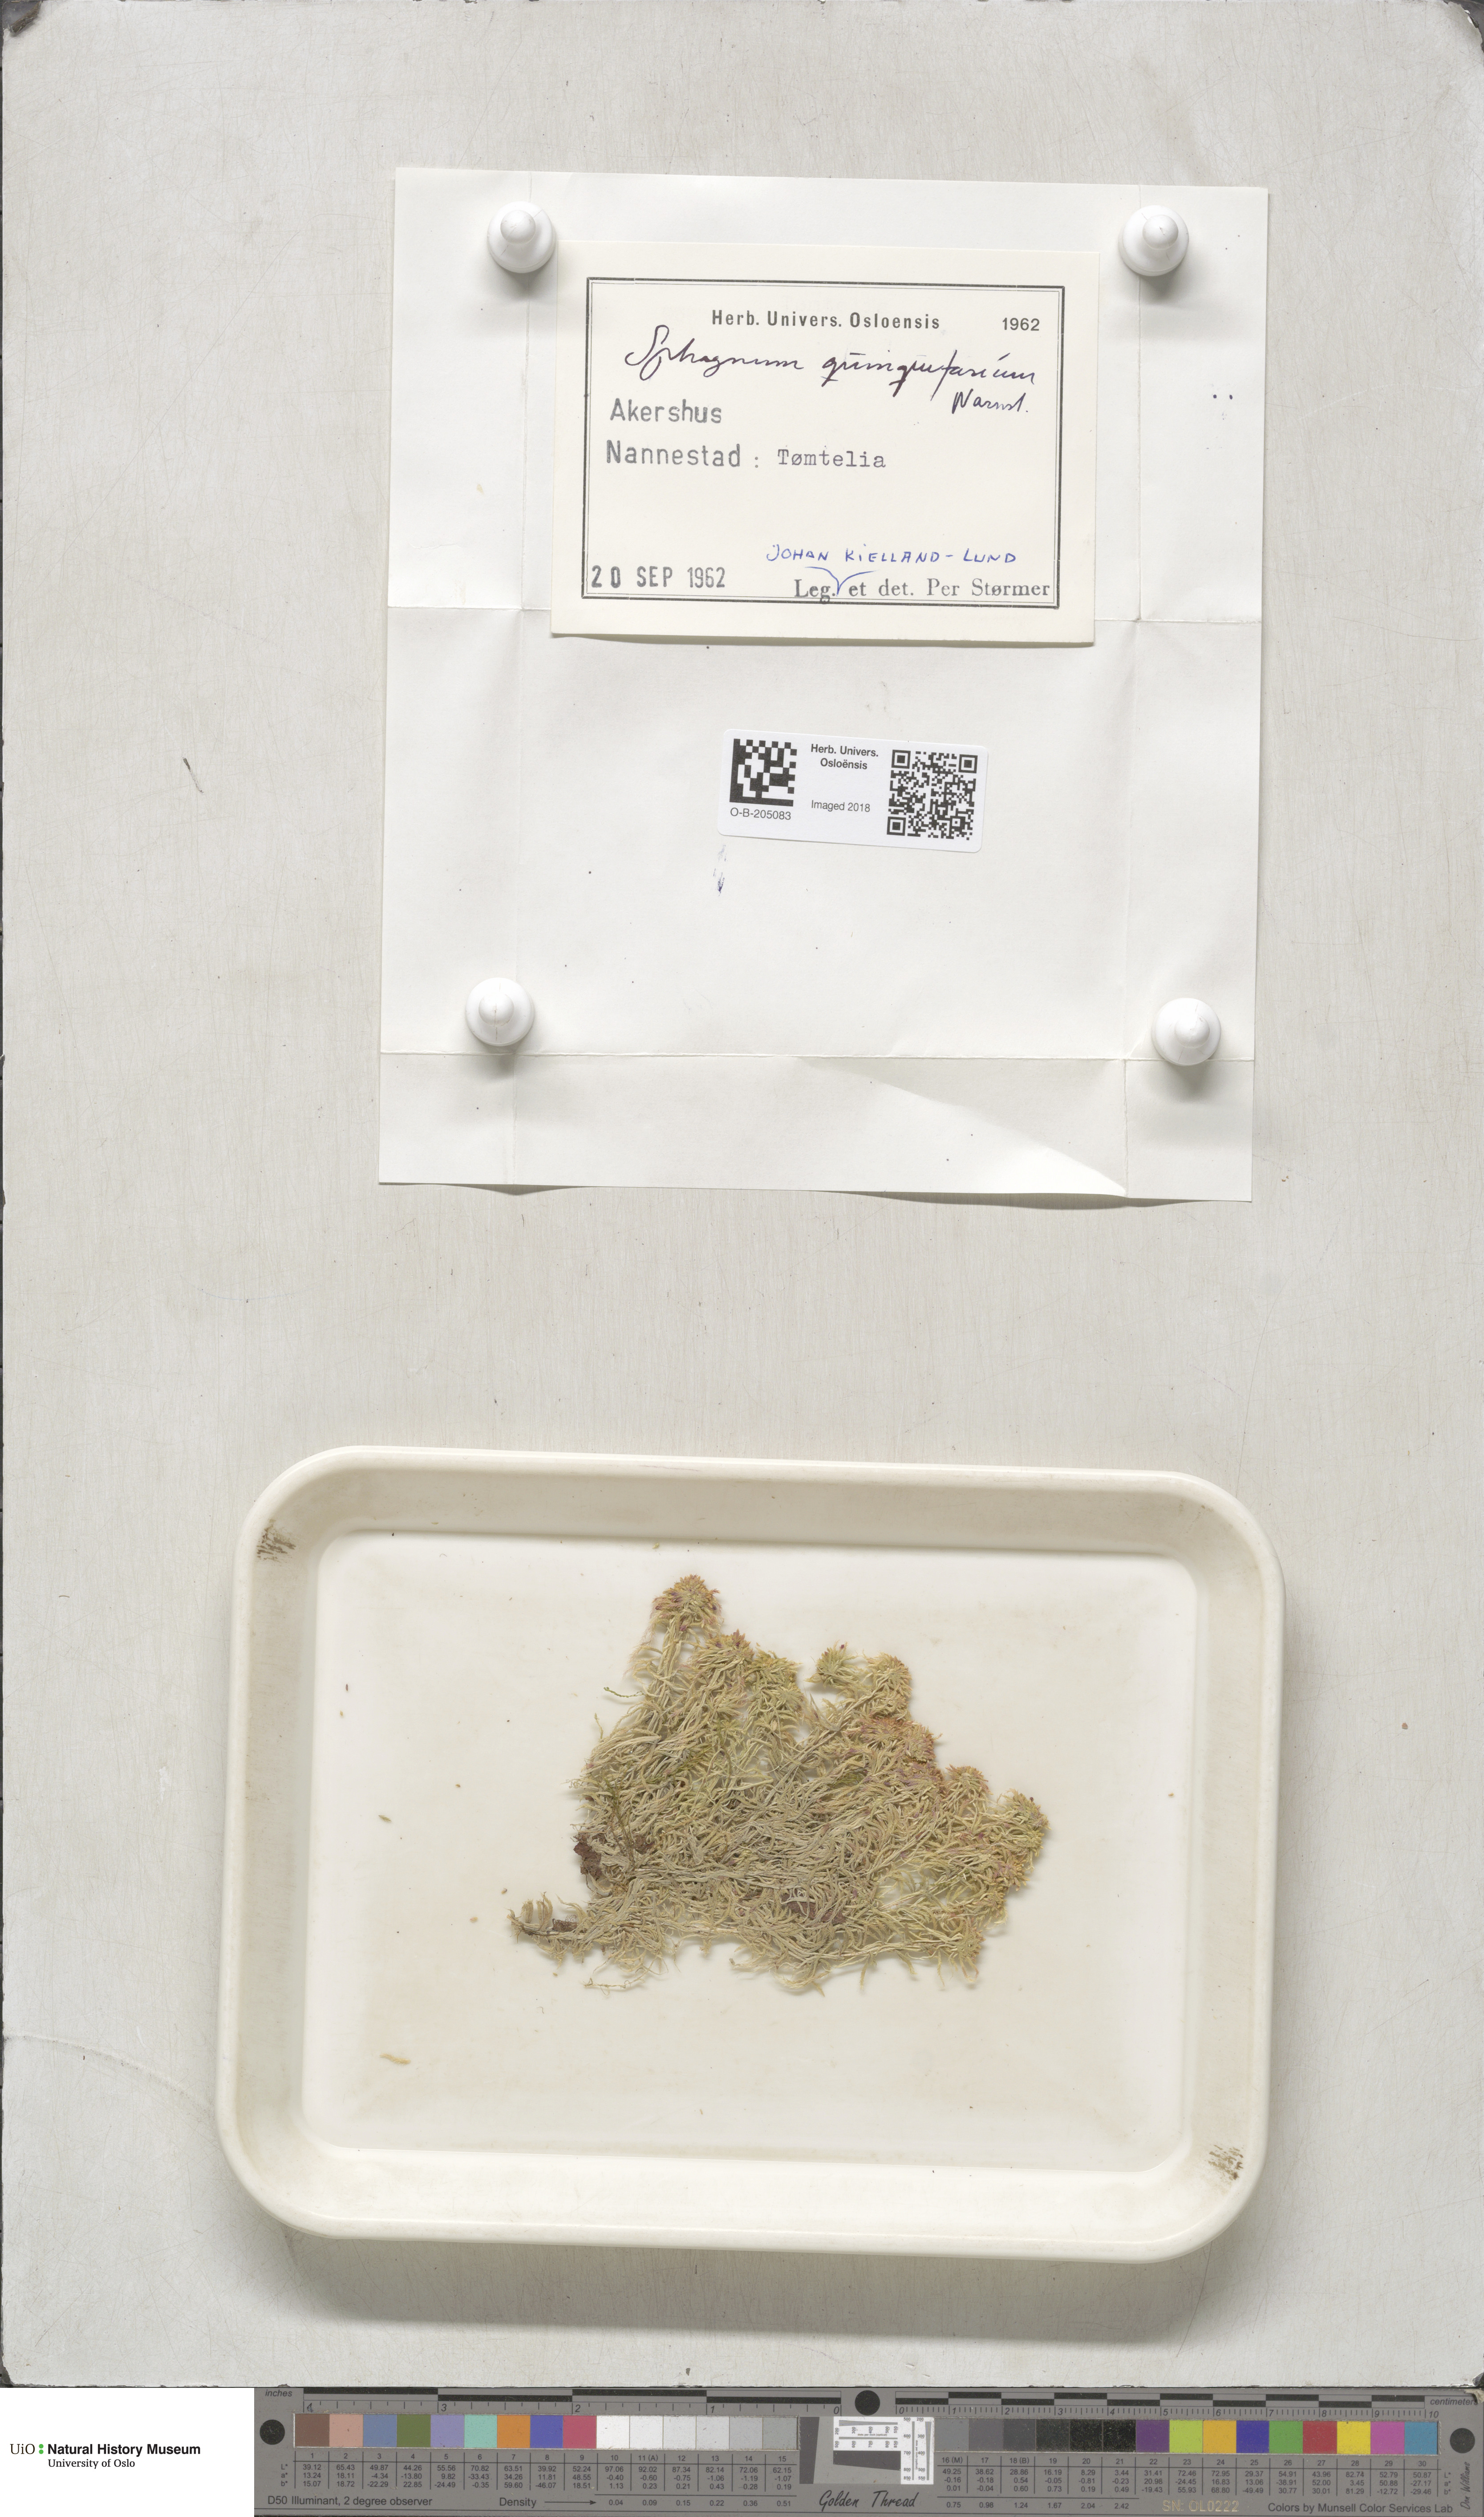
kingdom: Plantae
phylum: Bryophyta
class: Sphagnopsida
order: Sphagnales
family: Sphagnaceae
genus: Sphagnum
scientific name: Sphagnum quinquefarium
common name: Five-ranked peat moss
